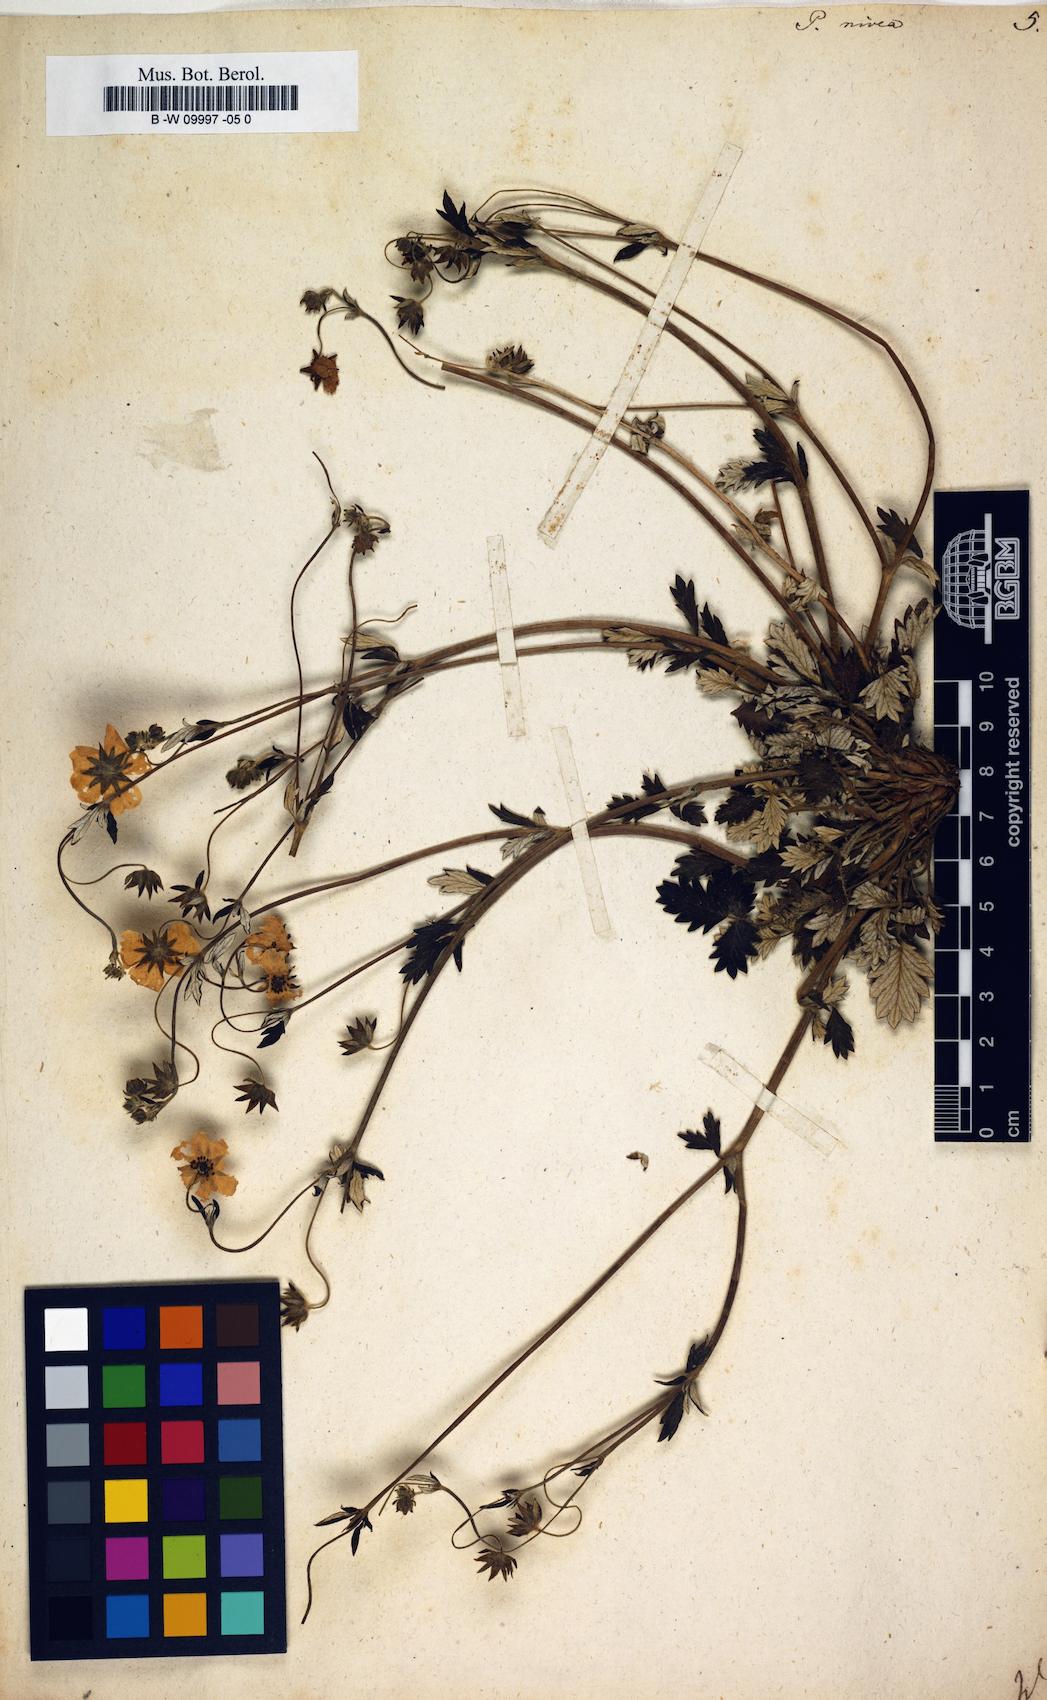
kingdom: Plantae
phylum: Tracheophyta
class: Magnoliopsida
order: Rosales
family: Rosaceae
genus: Potentilla
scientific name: Potentilla nivea
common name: Snow cinquefoil
